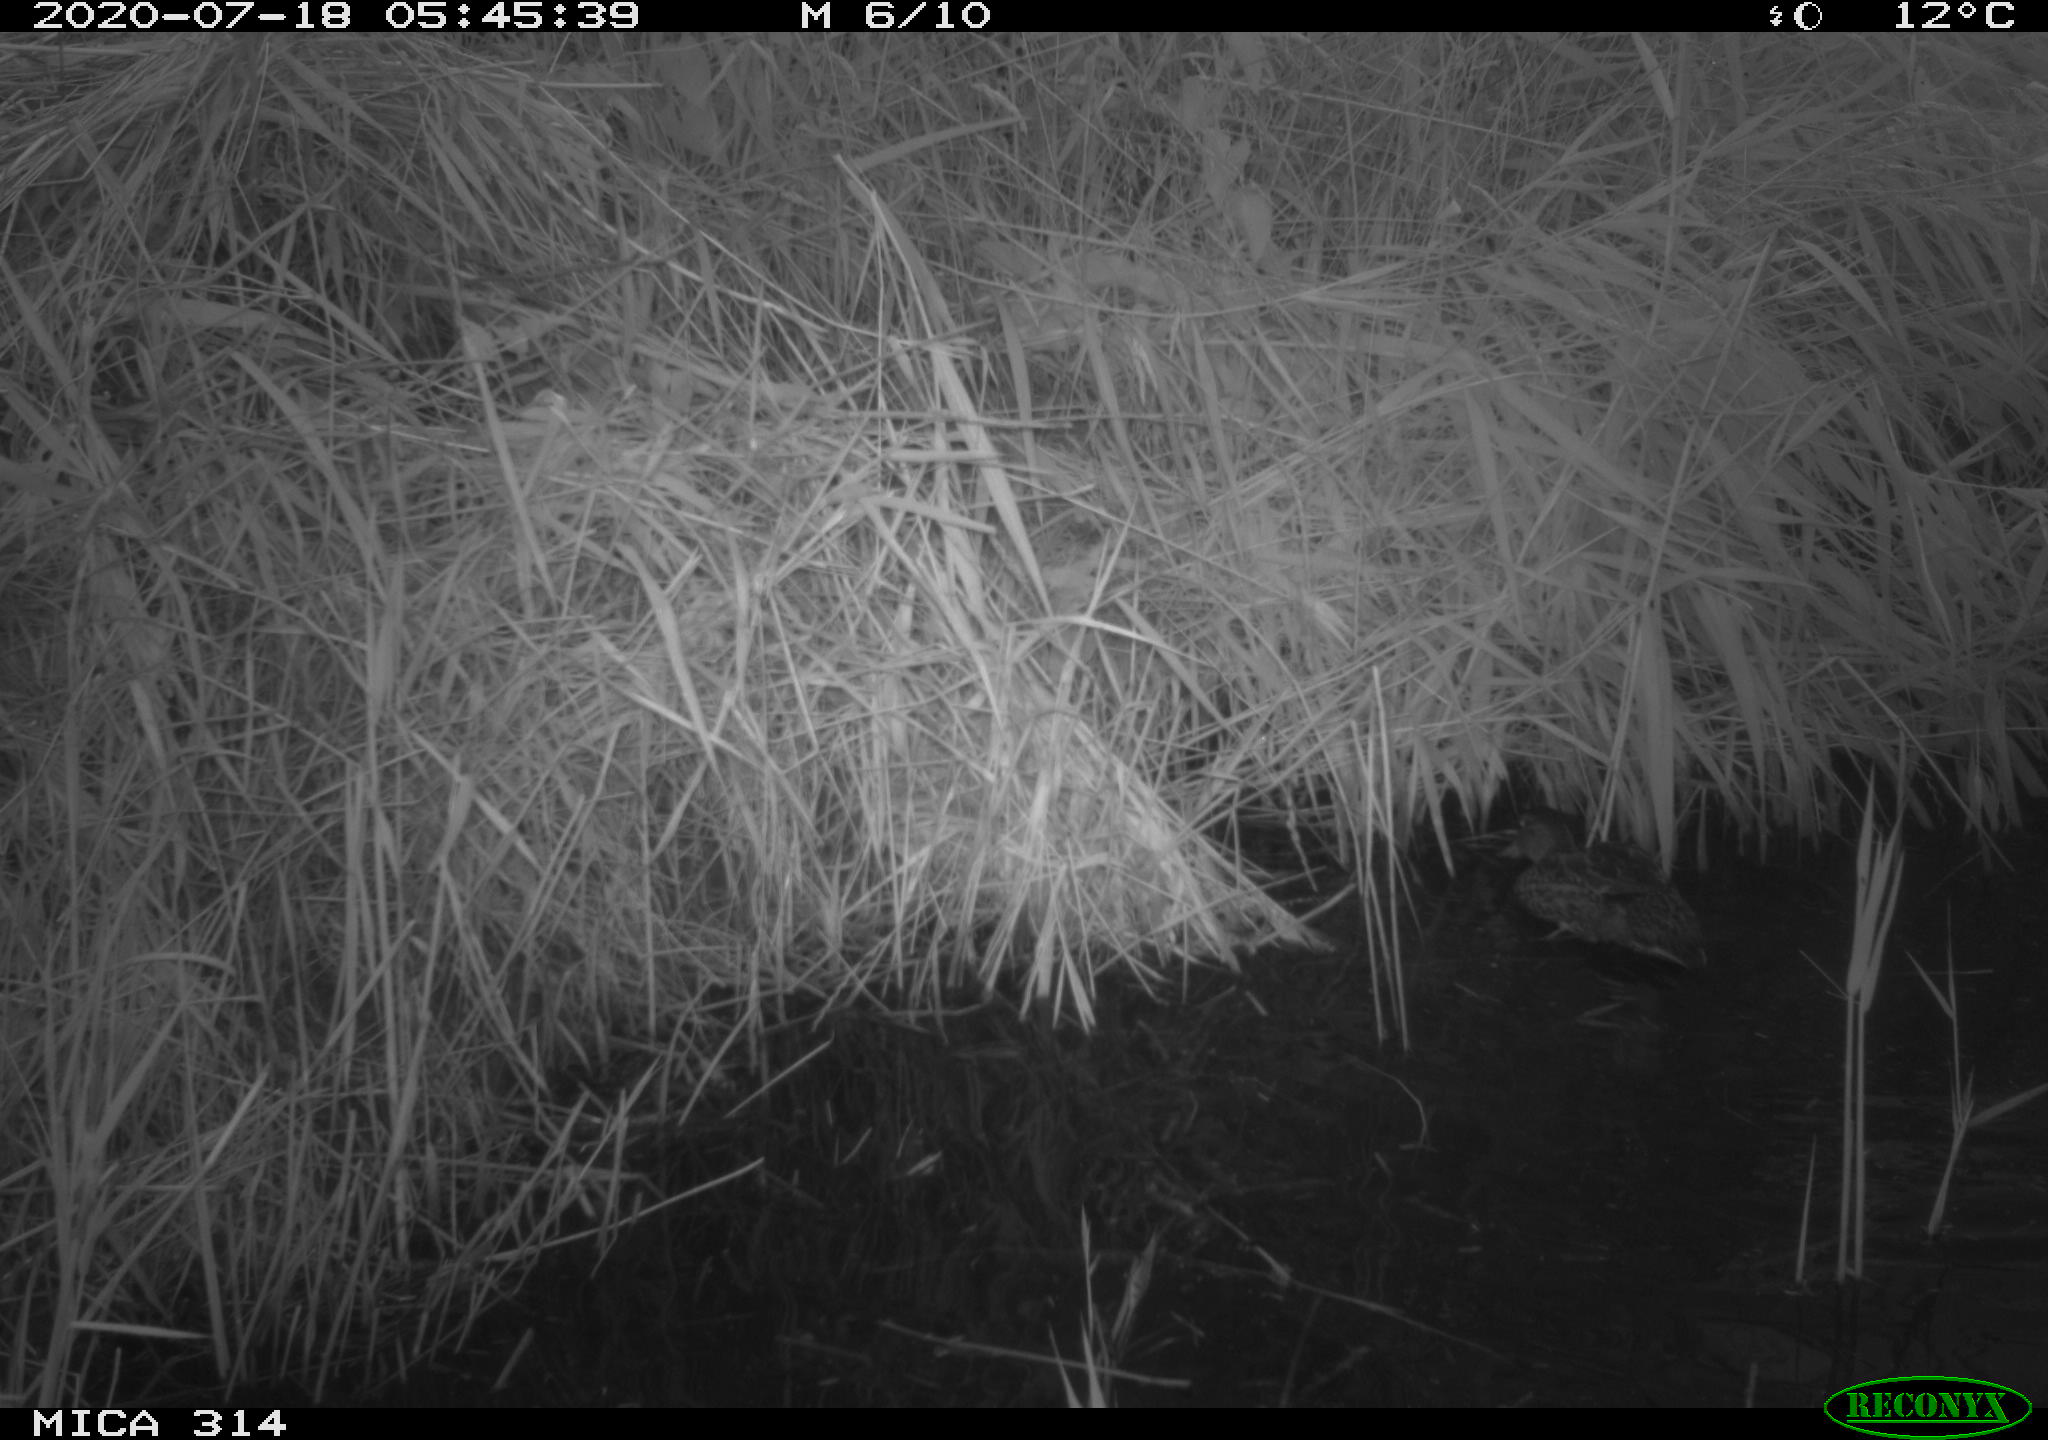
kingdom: Animalia
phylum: Chordata
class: Aves
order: Anseriformes
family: Anatidae
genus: Anas
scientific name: Anas platyrhynchos
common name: Mallard
